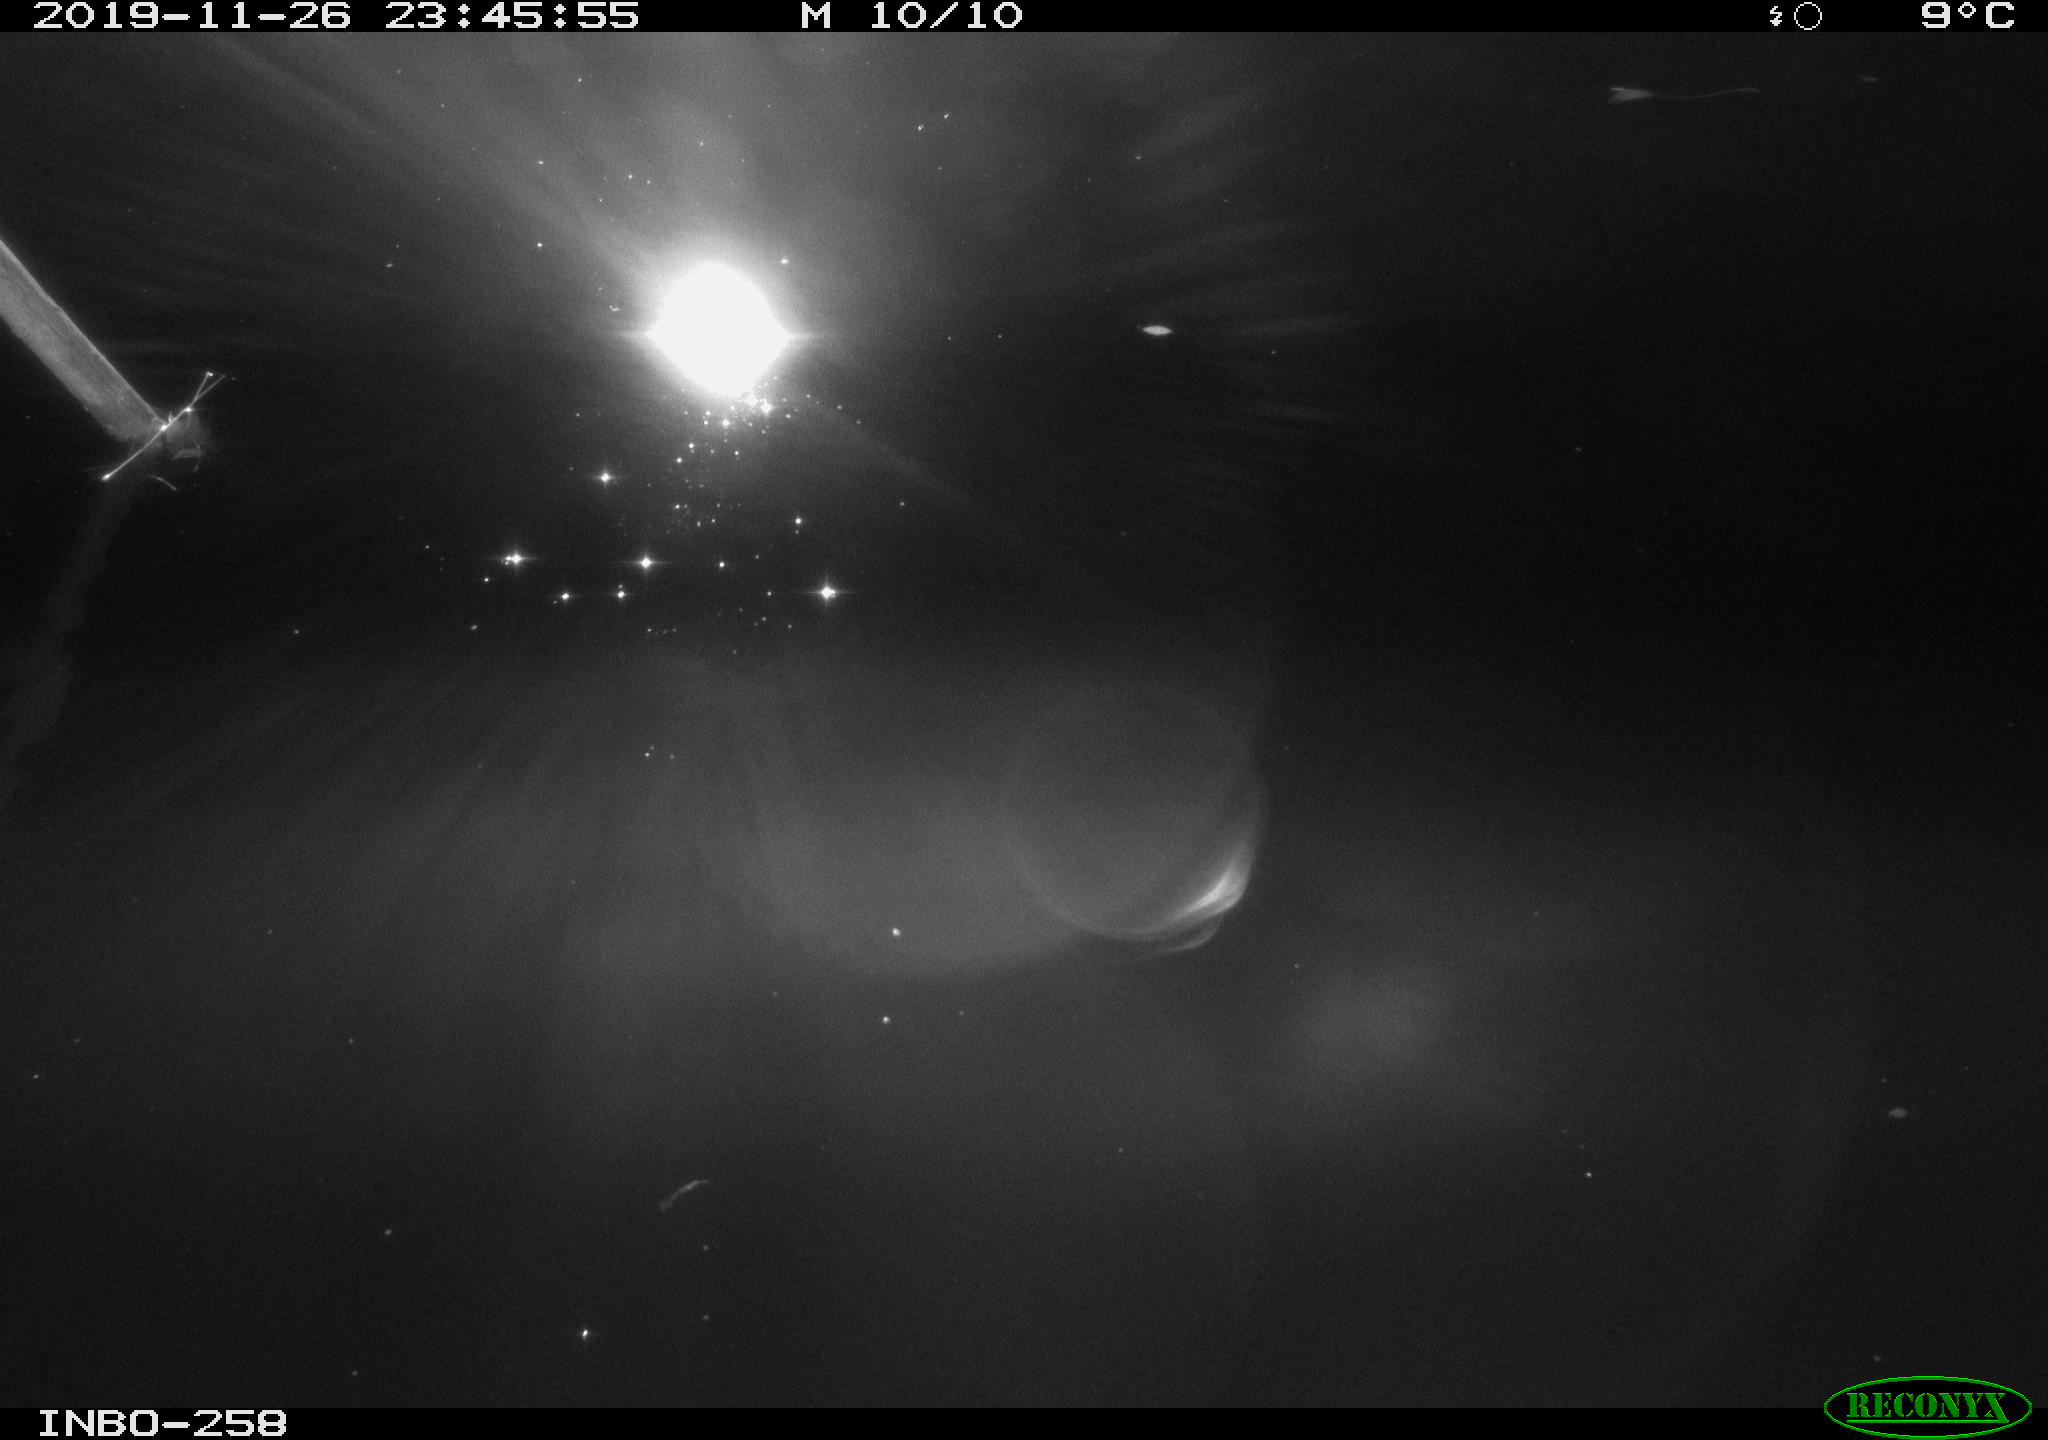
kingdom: Animalia
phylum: Chordata
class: Aves
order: Anseriformes
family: Anatidae
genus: Anas
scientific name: Anas platyrhynchos
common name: Mallard
